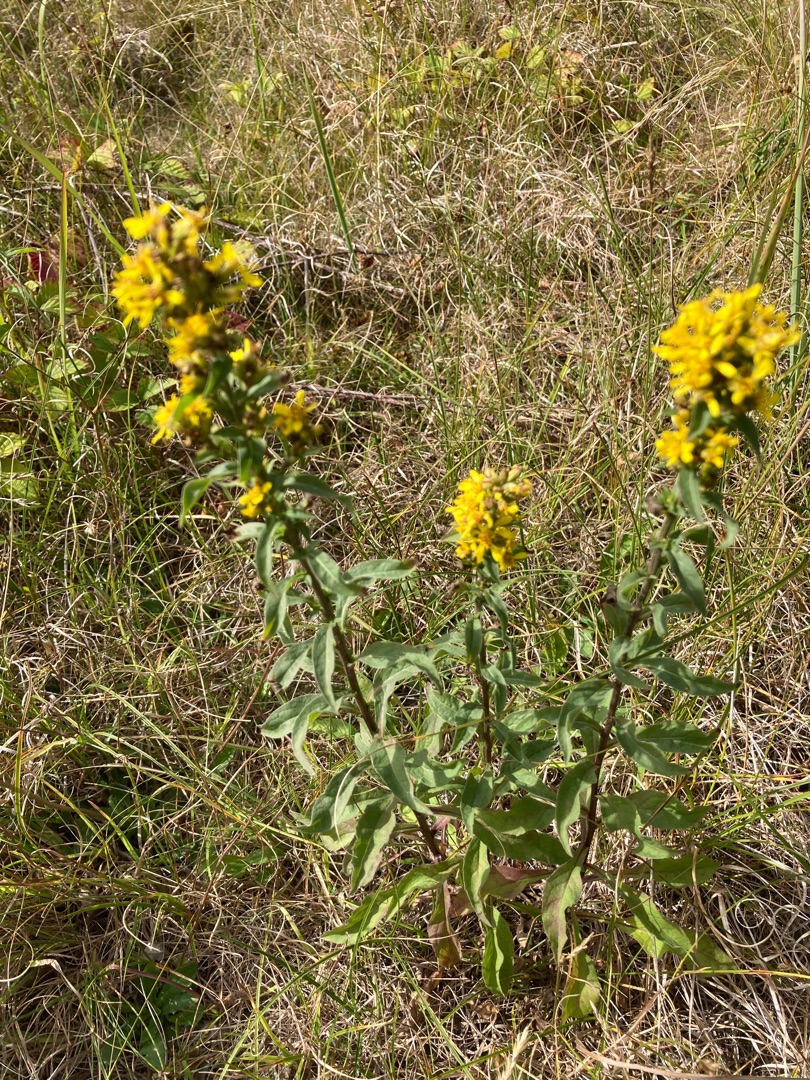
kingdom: Plantae
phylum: Tracheophyta
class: Magnoliopsida
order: Asterales
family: Asteraceae
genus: Solidago
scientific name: Solidago virgaurea
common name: Almindelig gyldenris
